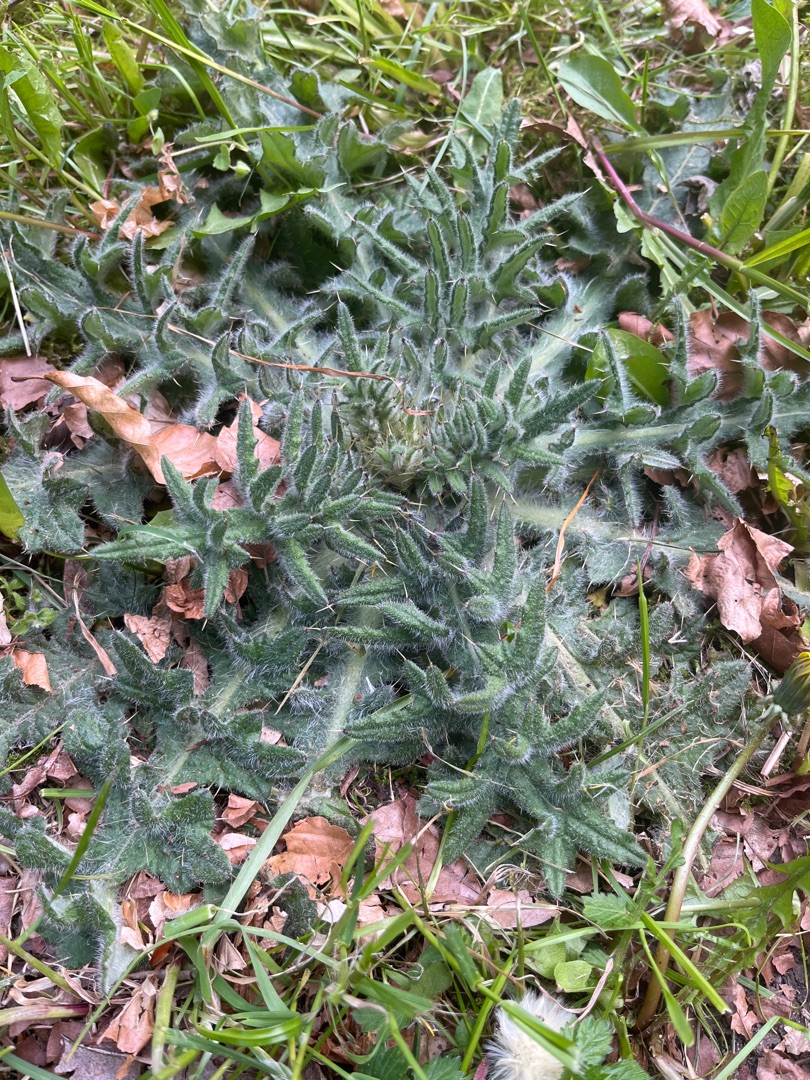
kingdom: Plantae
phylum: Tracheophyta
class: Magnoliopsida
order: Asterales
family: Asteraceae
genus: Cirsium
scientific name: Cirsium vulgare
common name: Horse-tidsel
